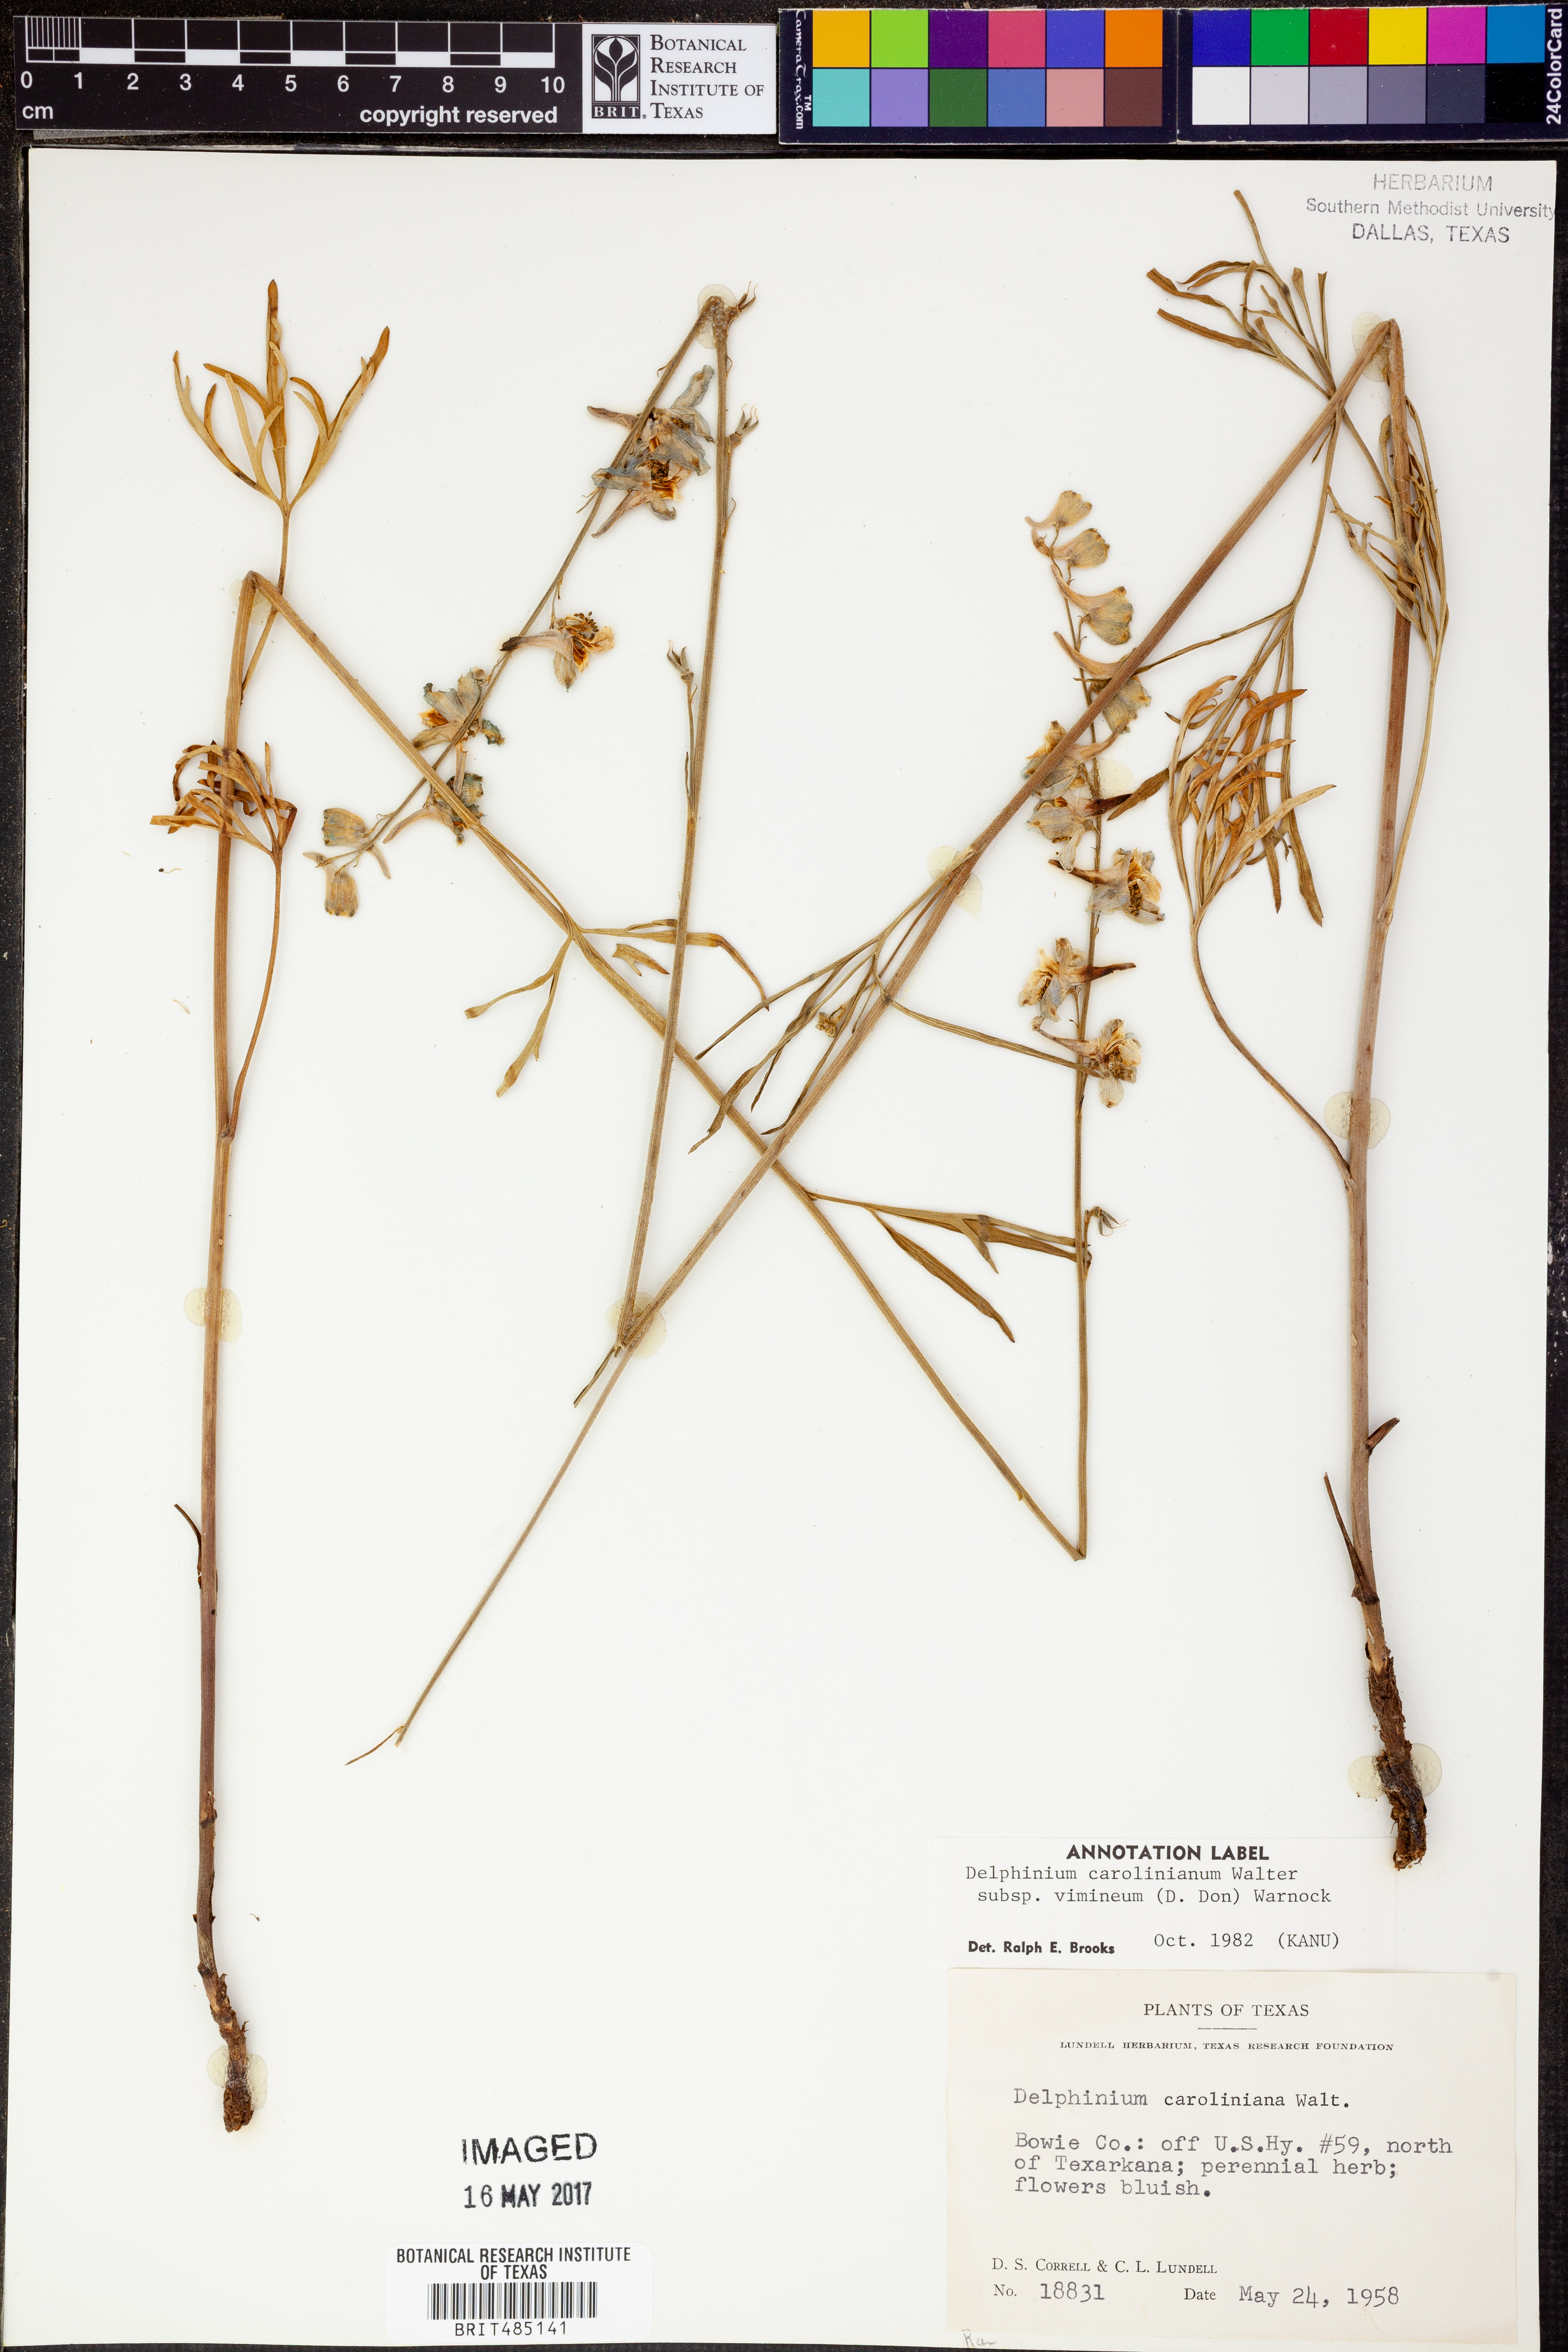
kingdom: Plantae
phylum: Tracheophyta
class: Magnoliopsida
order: Ranunculales
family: Ranunculaceae
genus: Delphinium
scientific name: Delphinium carolinianum
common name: Carolina larkspur
